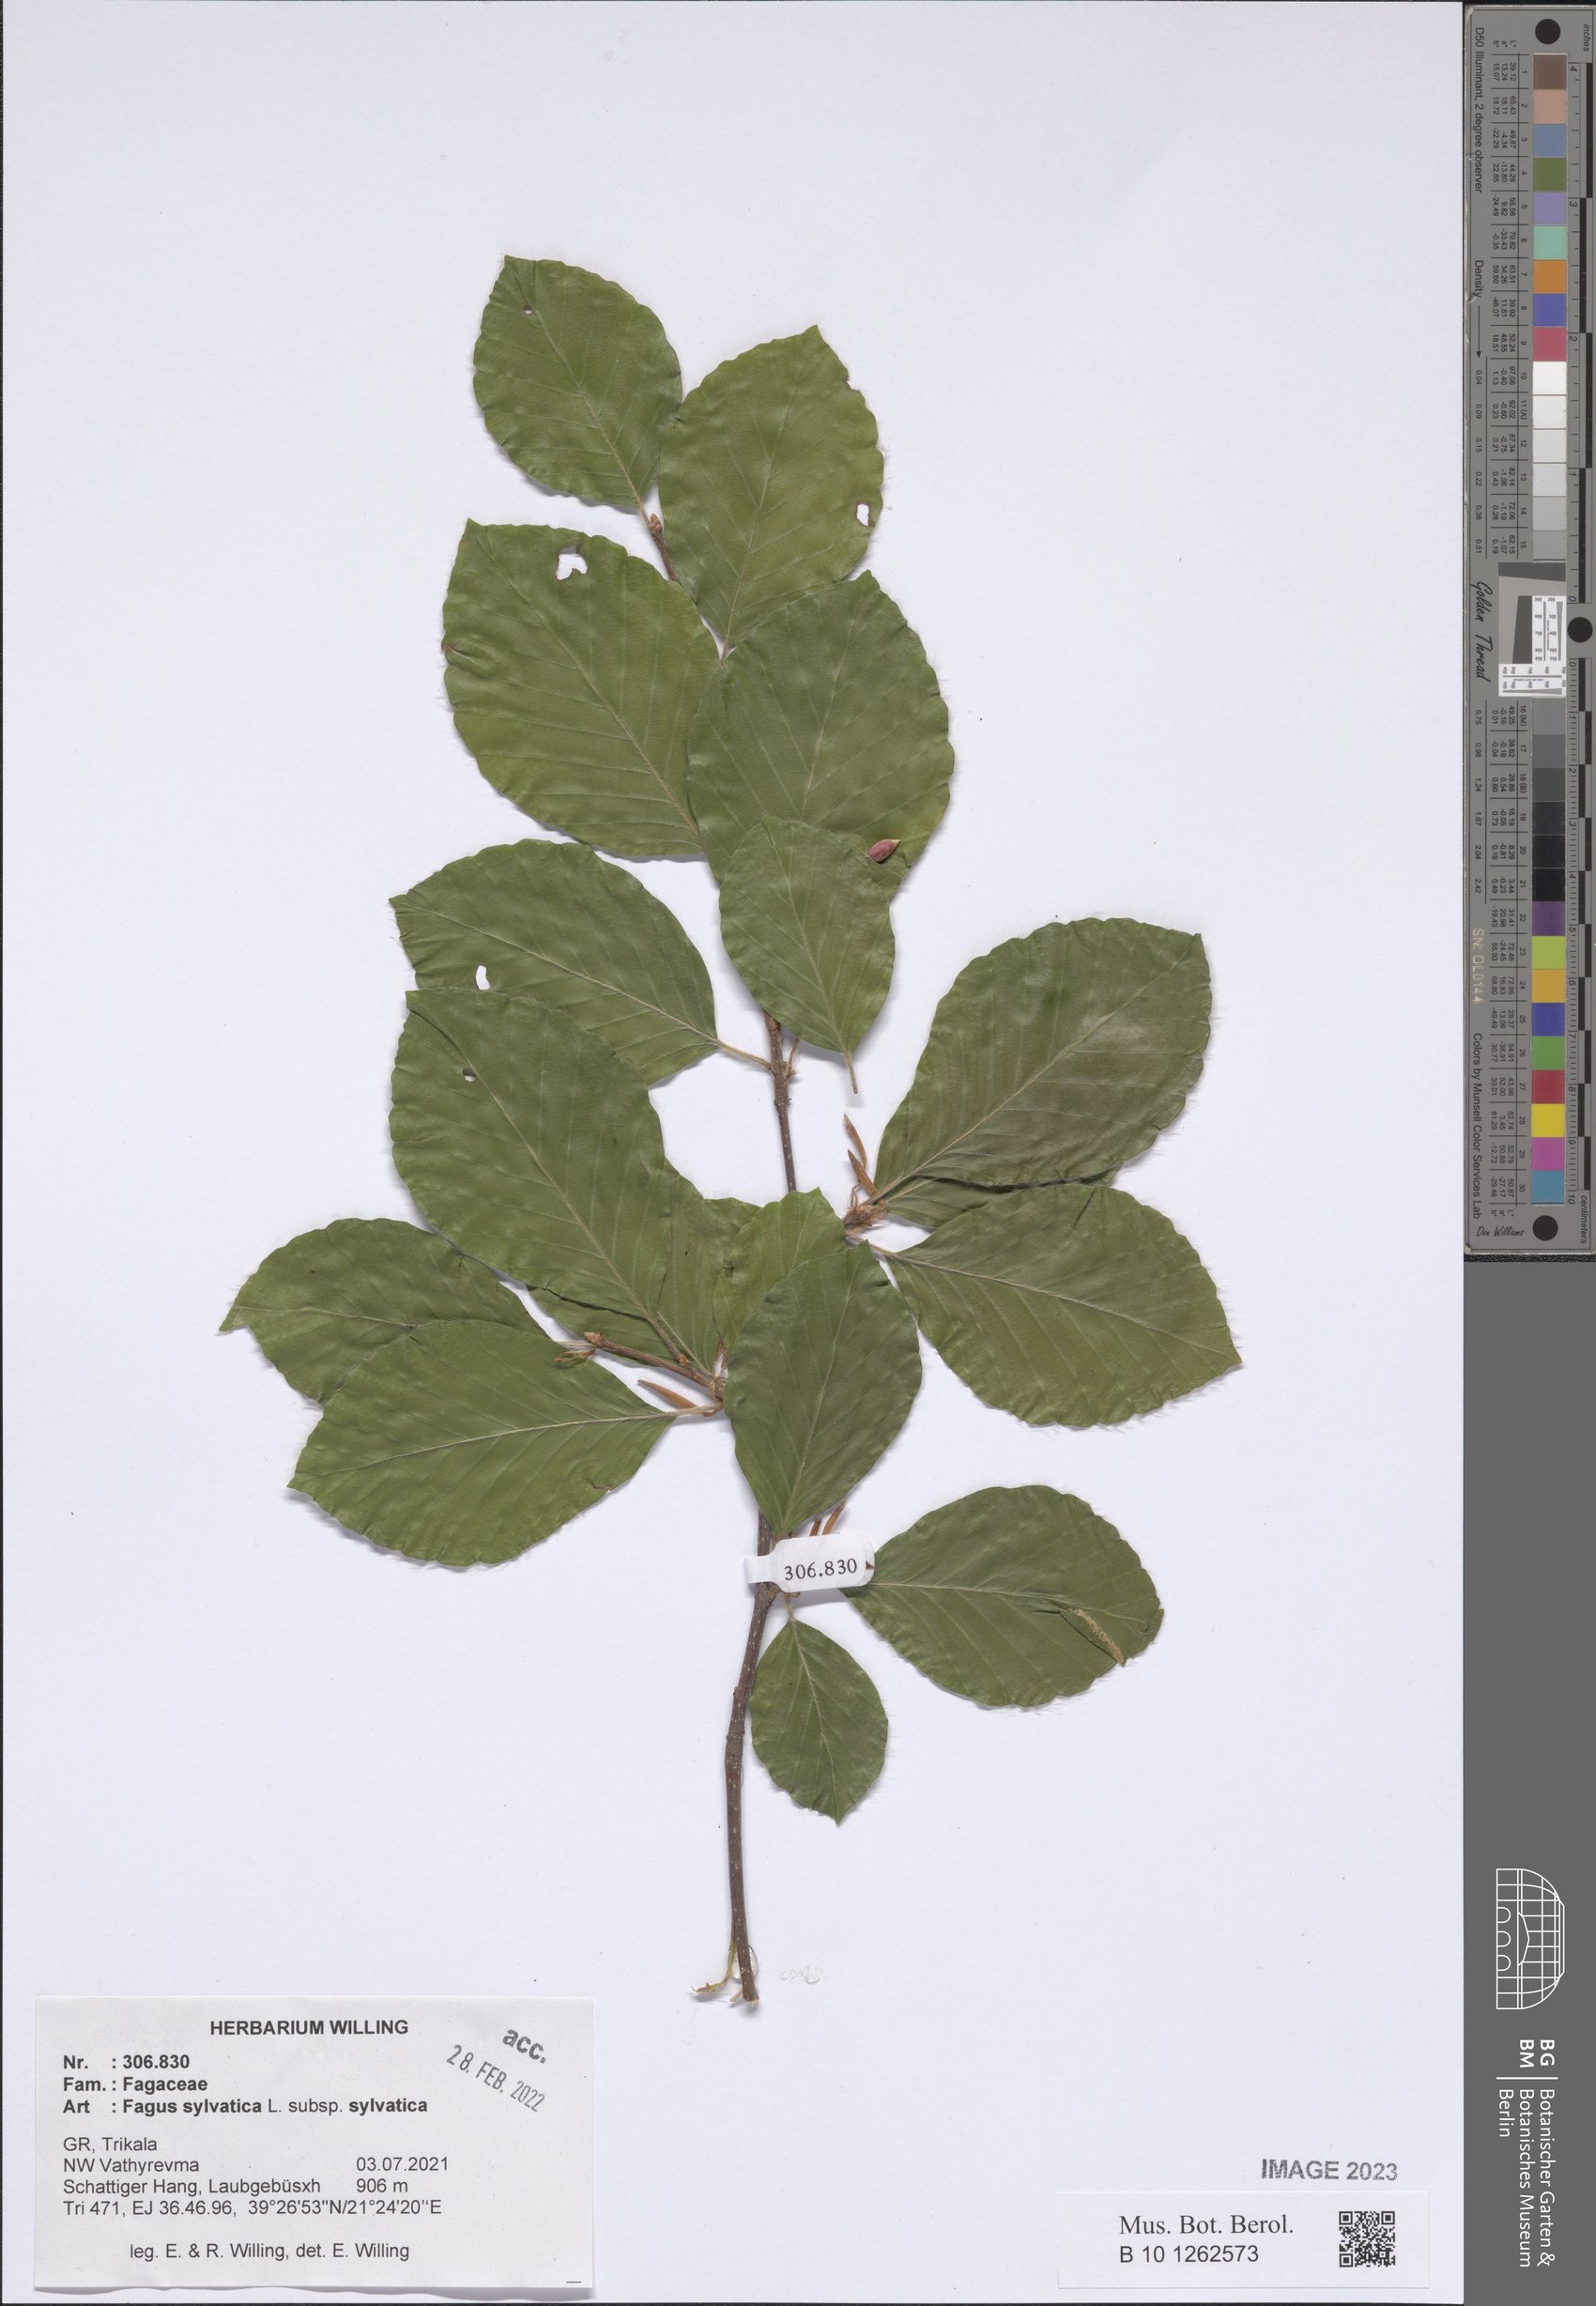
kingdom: Plantae
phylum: Tracheophyta
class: Magnoliopsida
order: Fagales
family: Fagaceae
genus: Fagus
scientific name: Fagus sylvatica
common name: Beech
